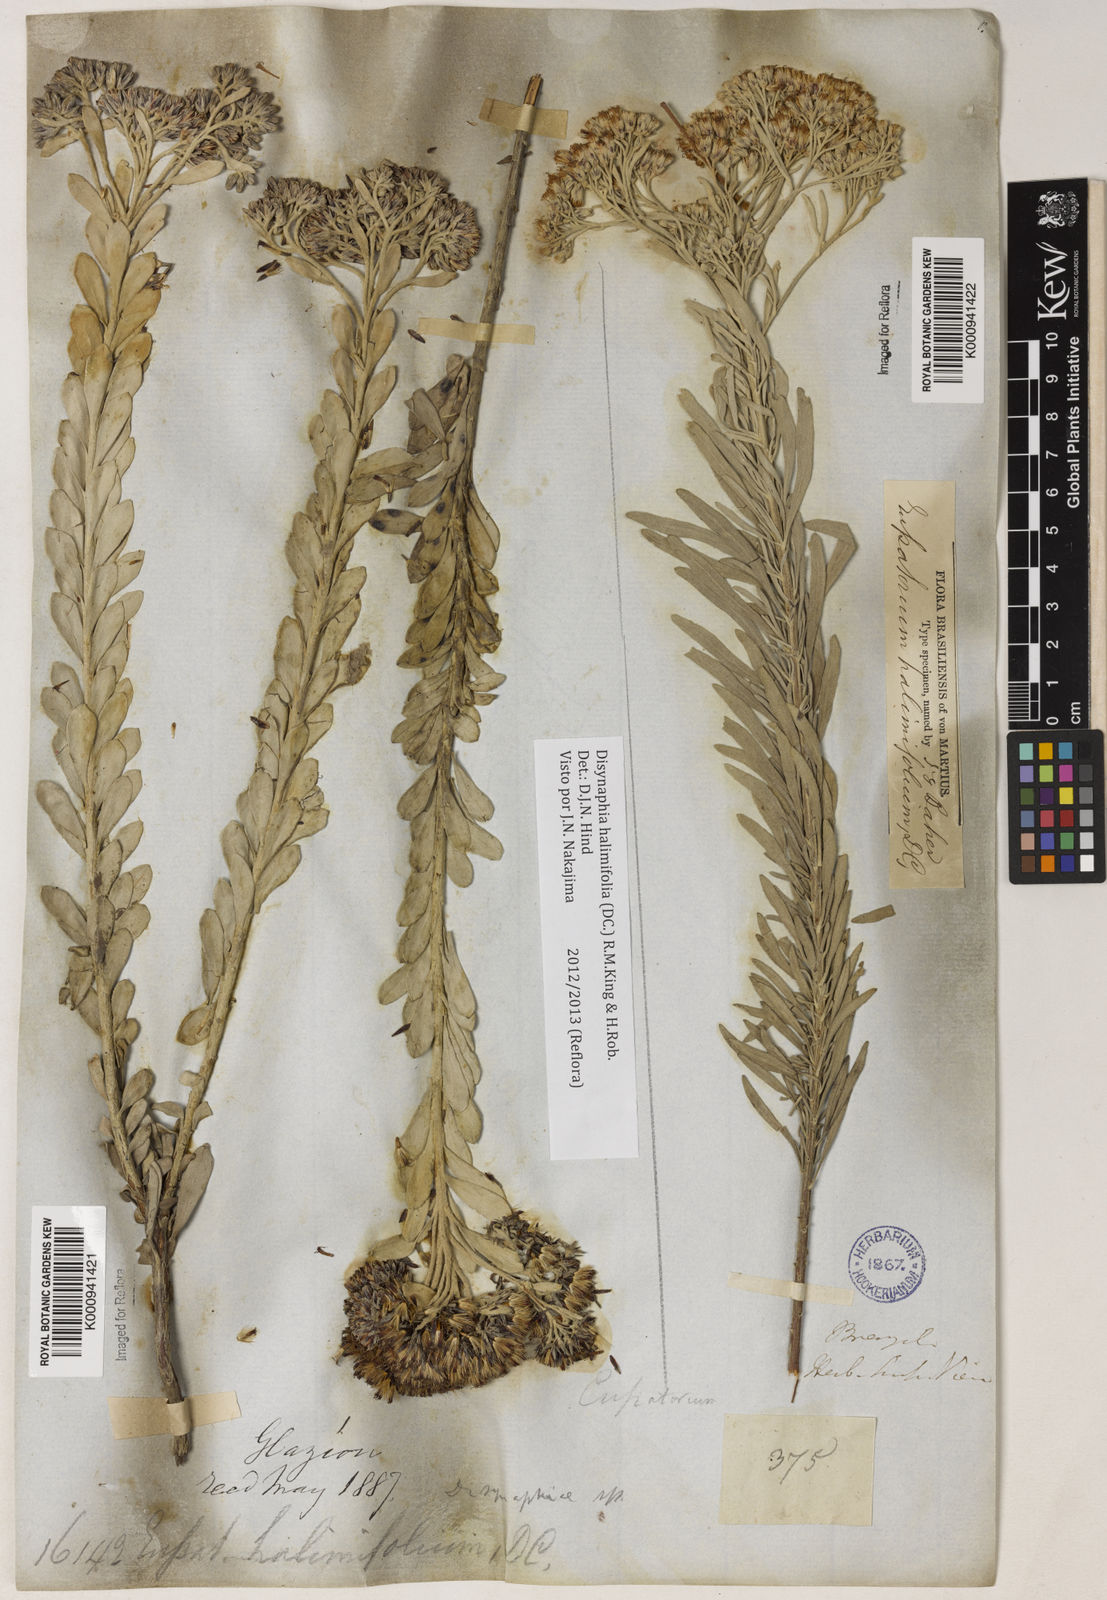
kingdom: Plantae
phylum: Tracheophyta
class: Magnoliopsida
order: Asterales
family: Asteraceae
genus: Disynaphia
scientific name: Disynaphia halimifolia
